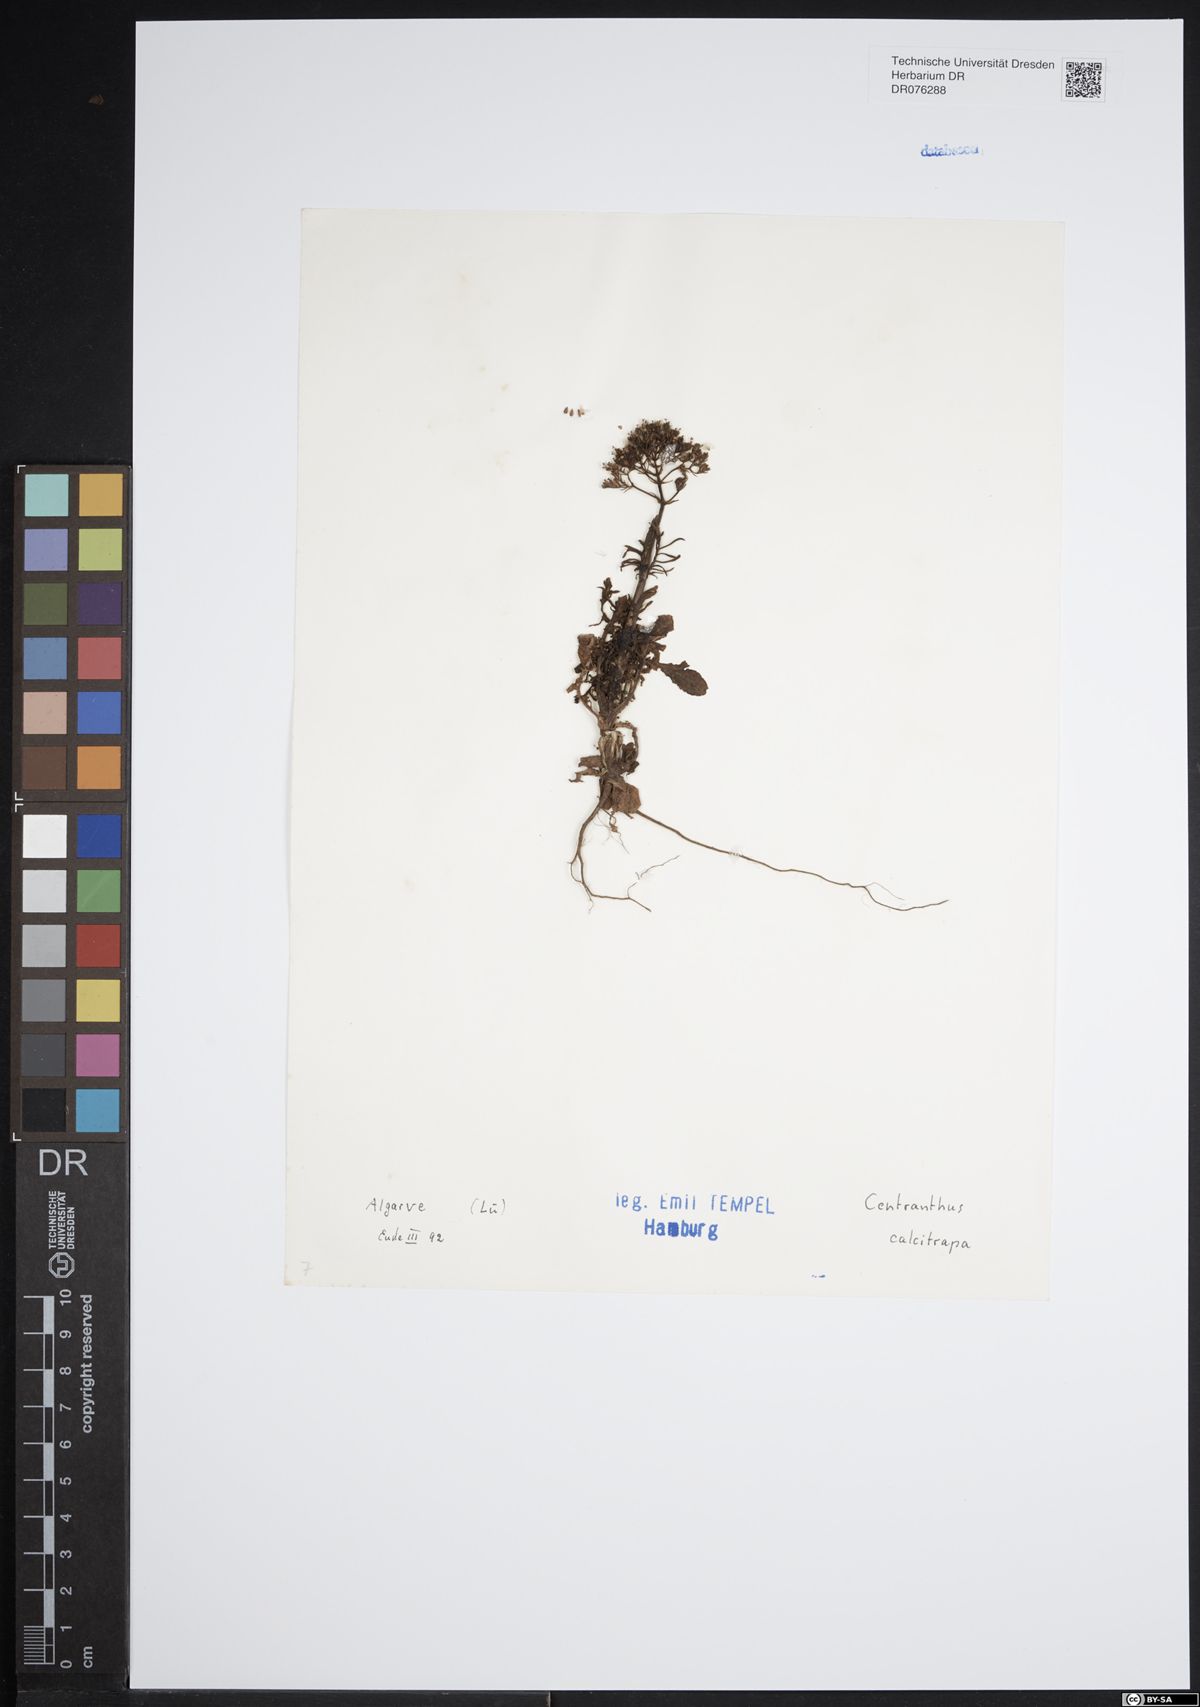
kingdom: Plantae
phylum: Tracheophyta
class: Magnoliopsida
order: Dipsacales
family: Caprifoliaceae
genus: Centranthus
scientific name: Centranthus calcitrapae
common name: Annual valerian
